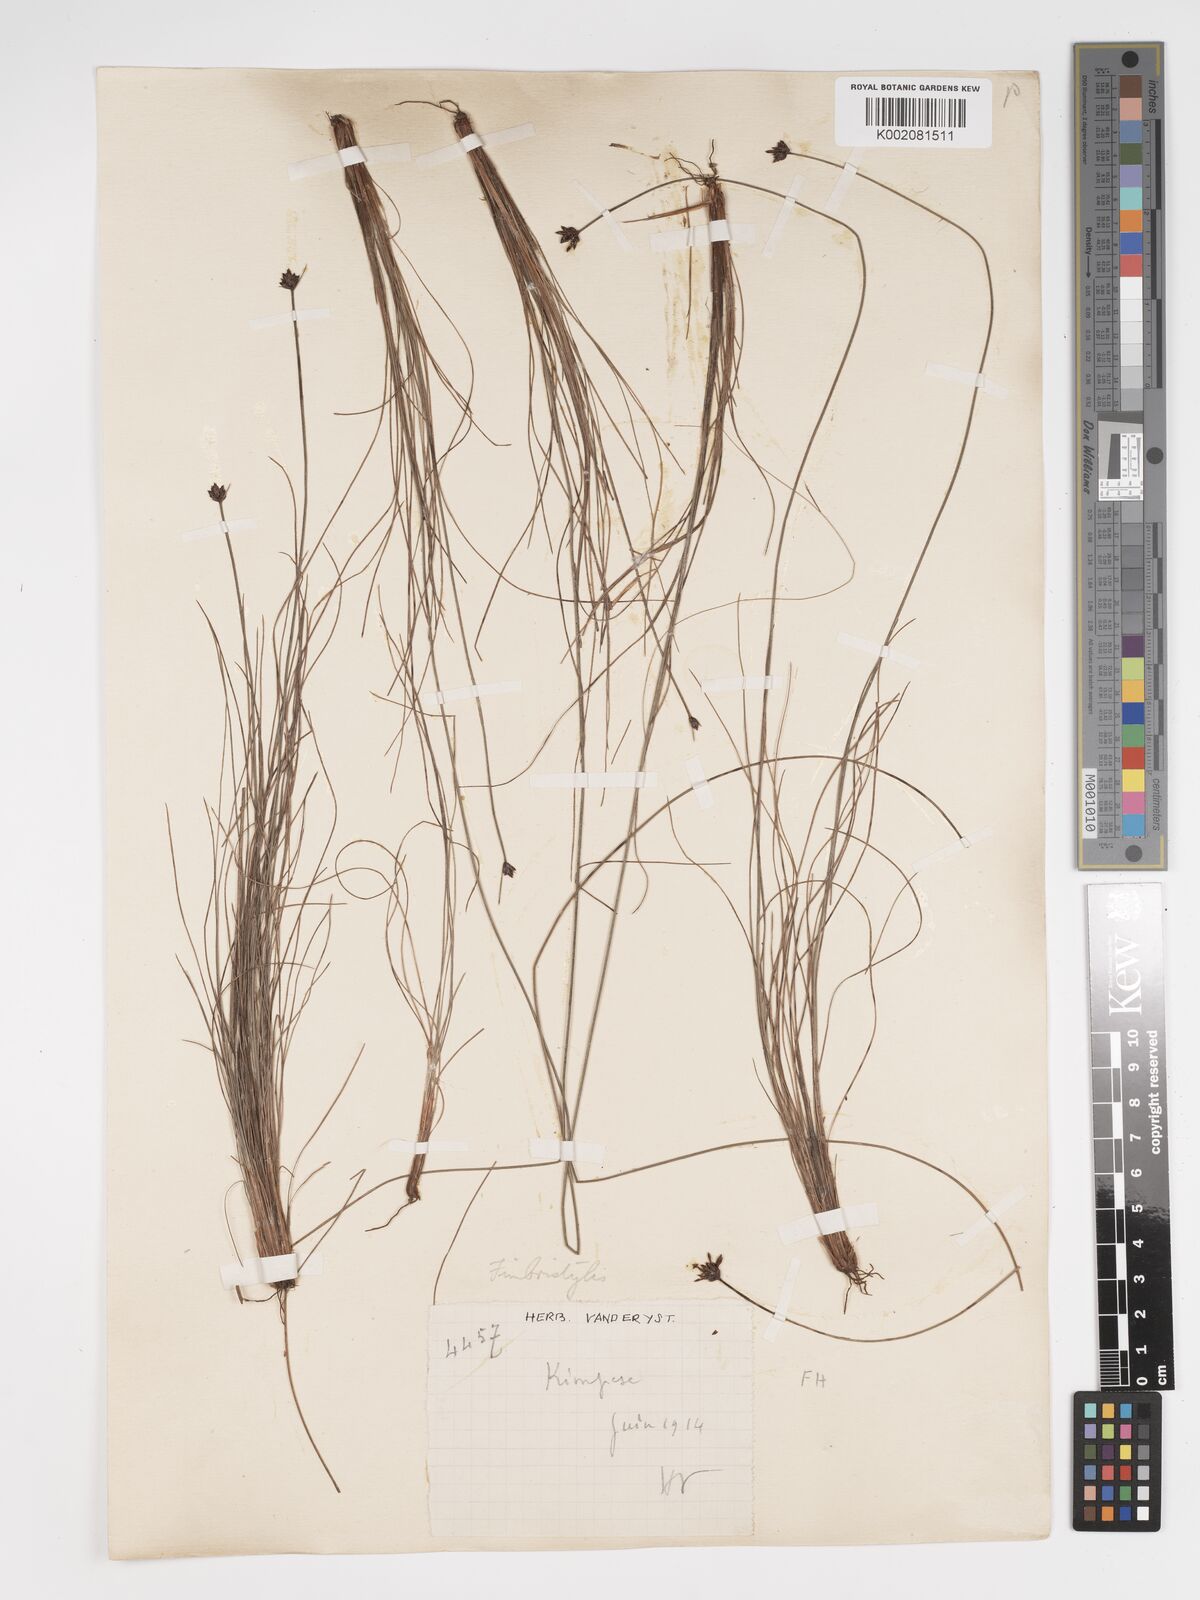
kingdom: Plantae
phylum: Tracheophyta
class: Liliopsida
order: Poales
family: Cyperaceae
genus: Bulbostylis
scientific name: Bulbostylis scabricaulis
